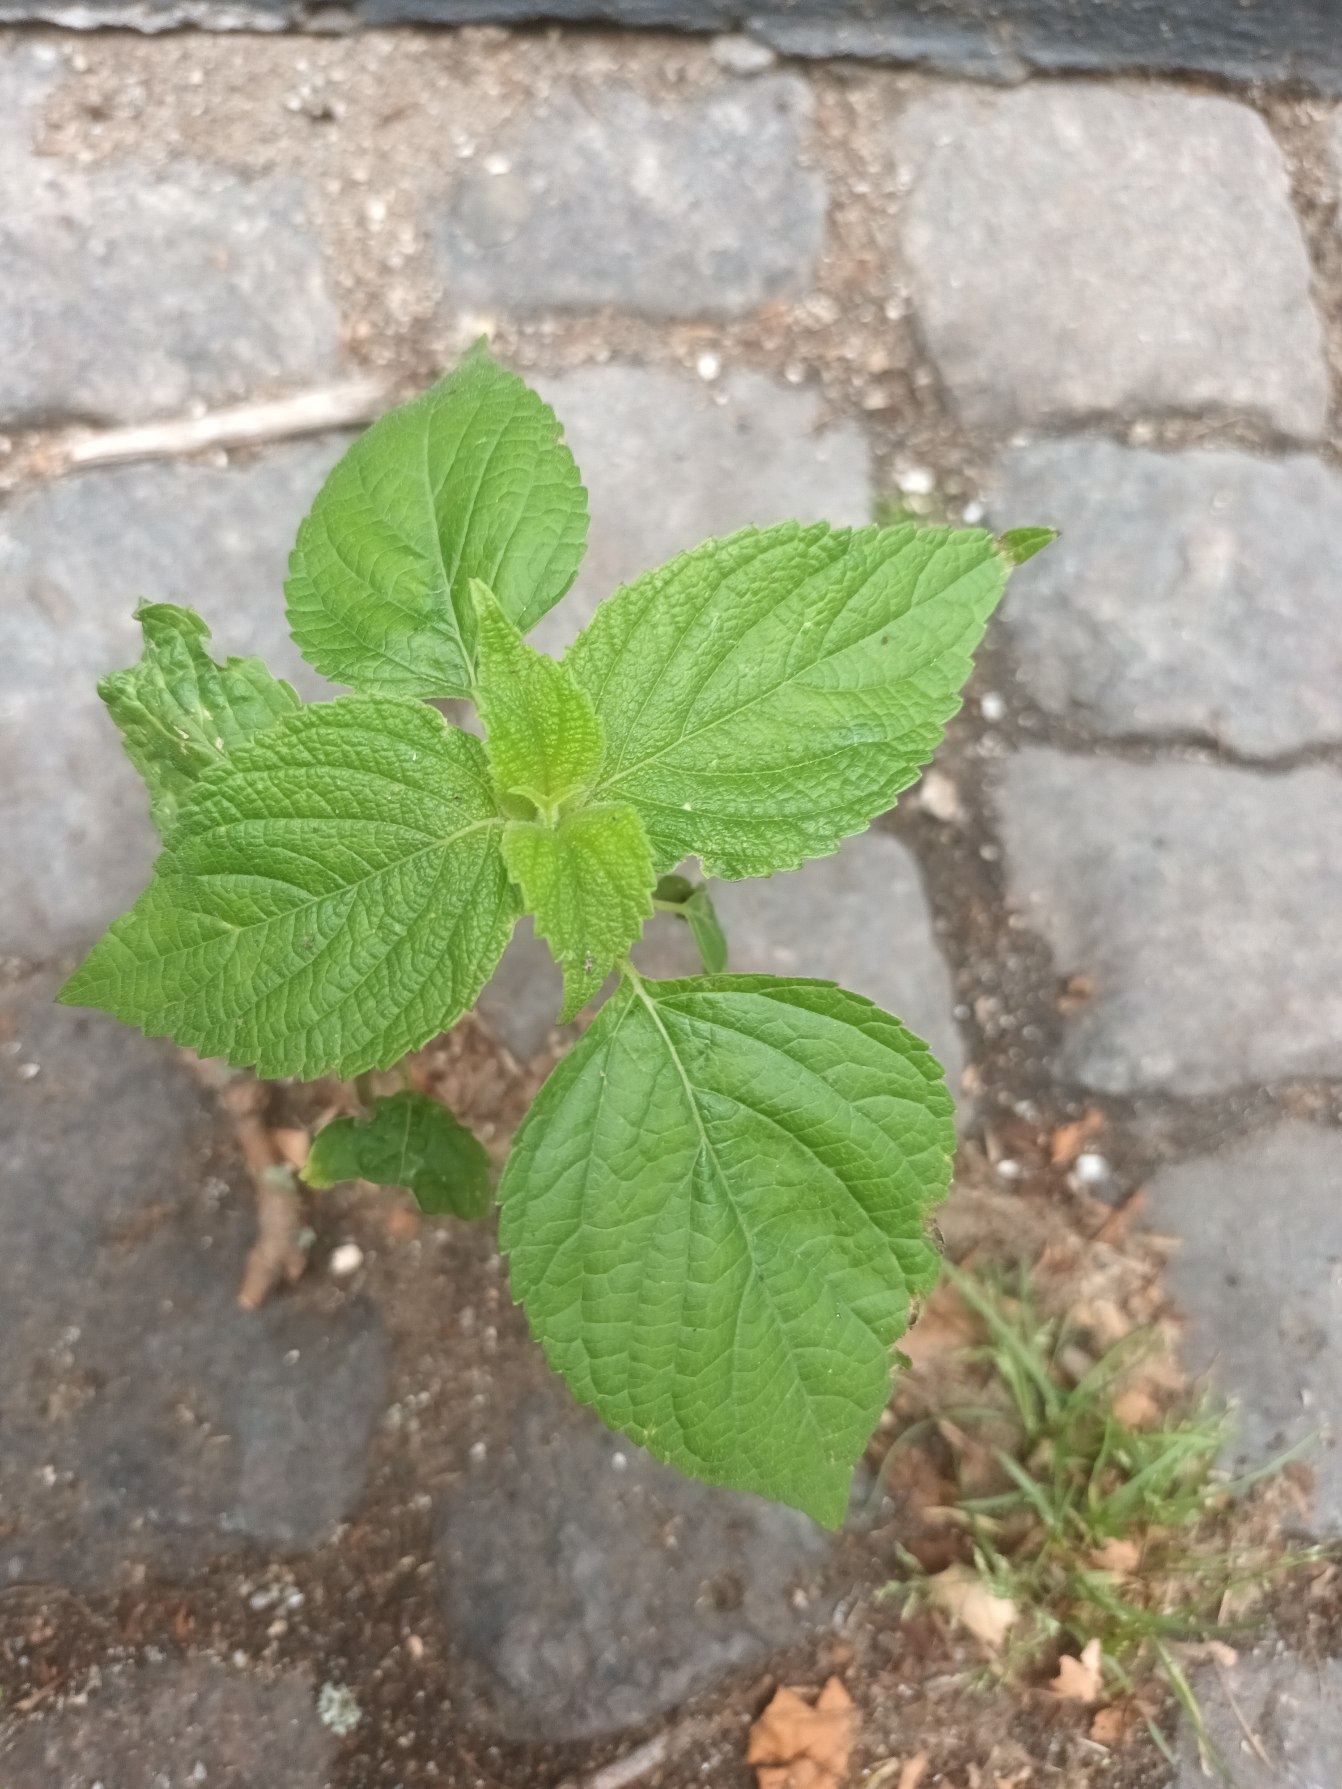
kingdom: Plantae
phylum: Tracheophyta
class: Magnoliopsida
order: Lamiales
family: Lamiaceae
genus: Salvia
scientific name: Salvia hispanica
